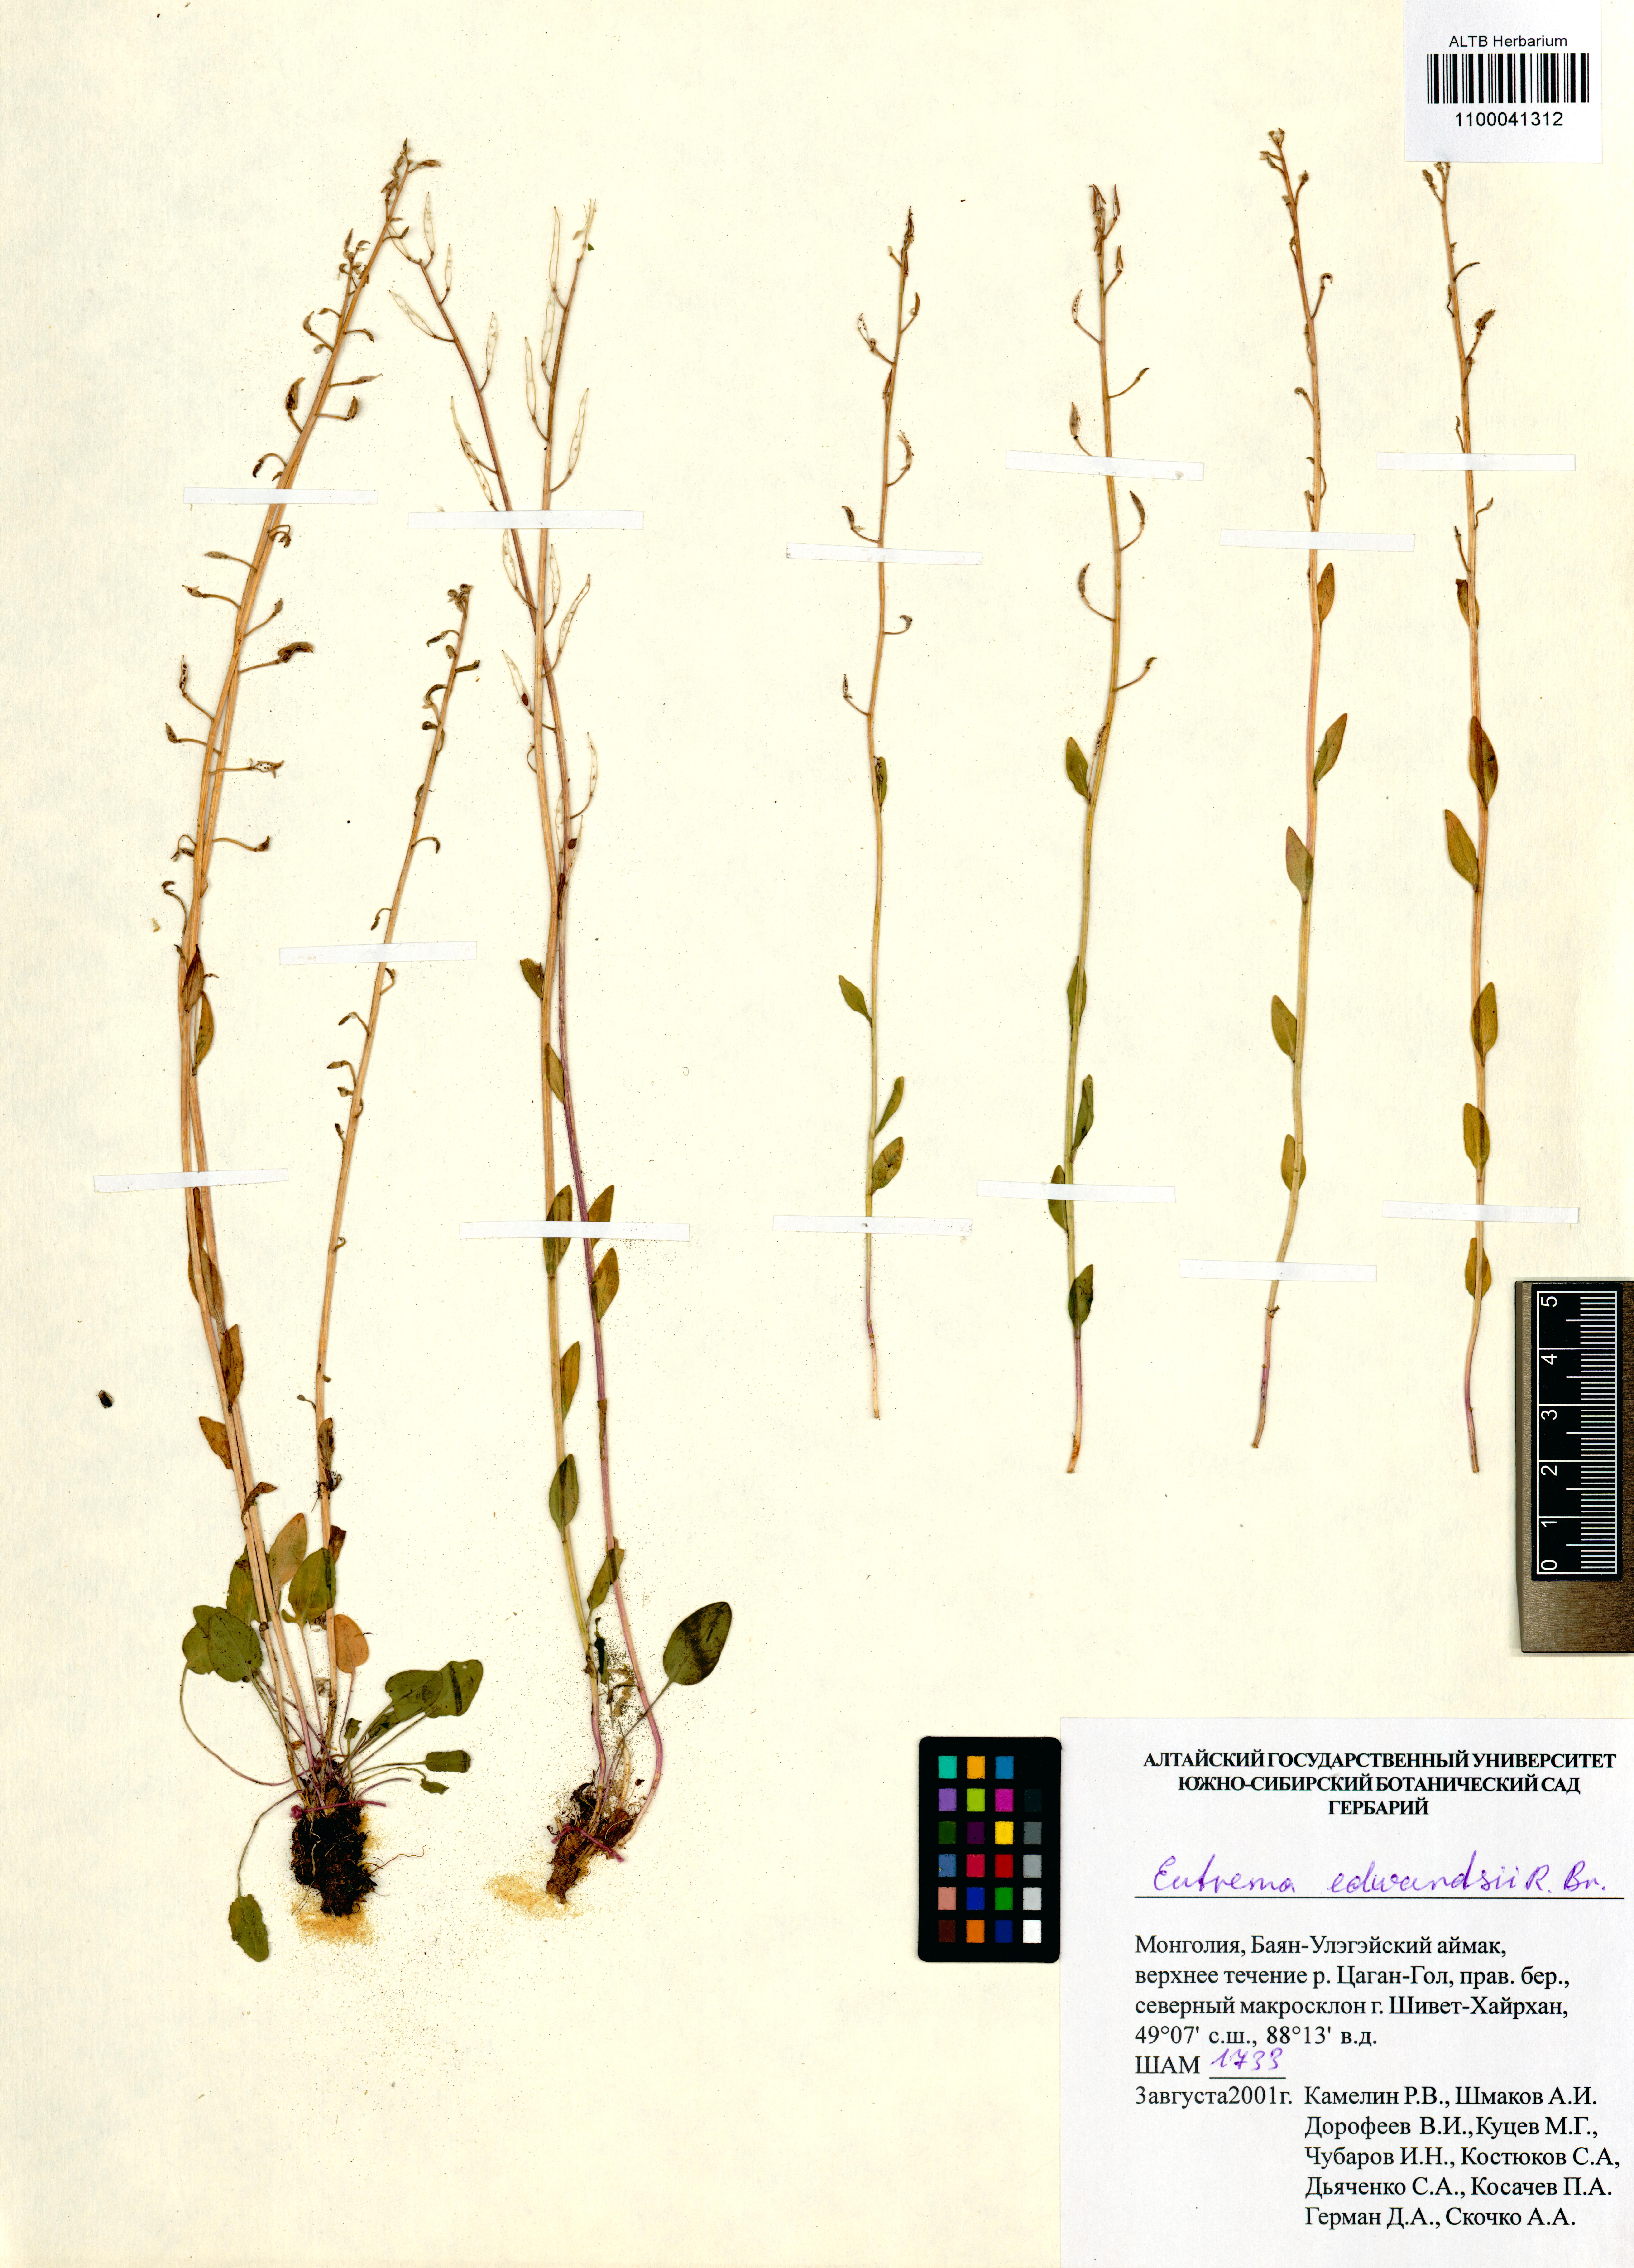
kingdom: Plantae
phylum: Tracheophyta
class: Magnoliopsida
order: Brassicales
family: Brassicaceae
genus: Eutrema
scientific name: Eutrema edwardsii
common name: Penland alpine fen mustard
